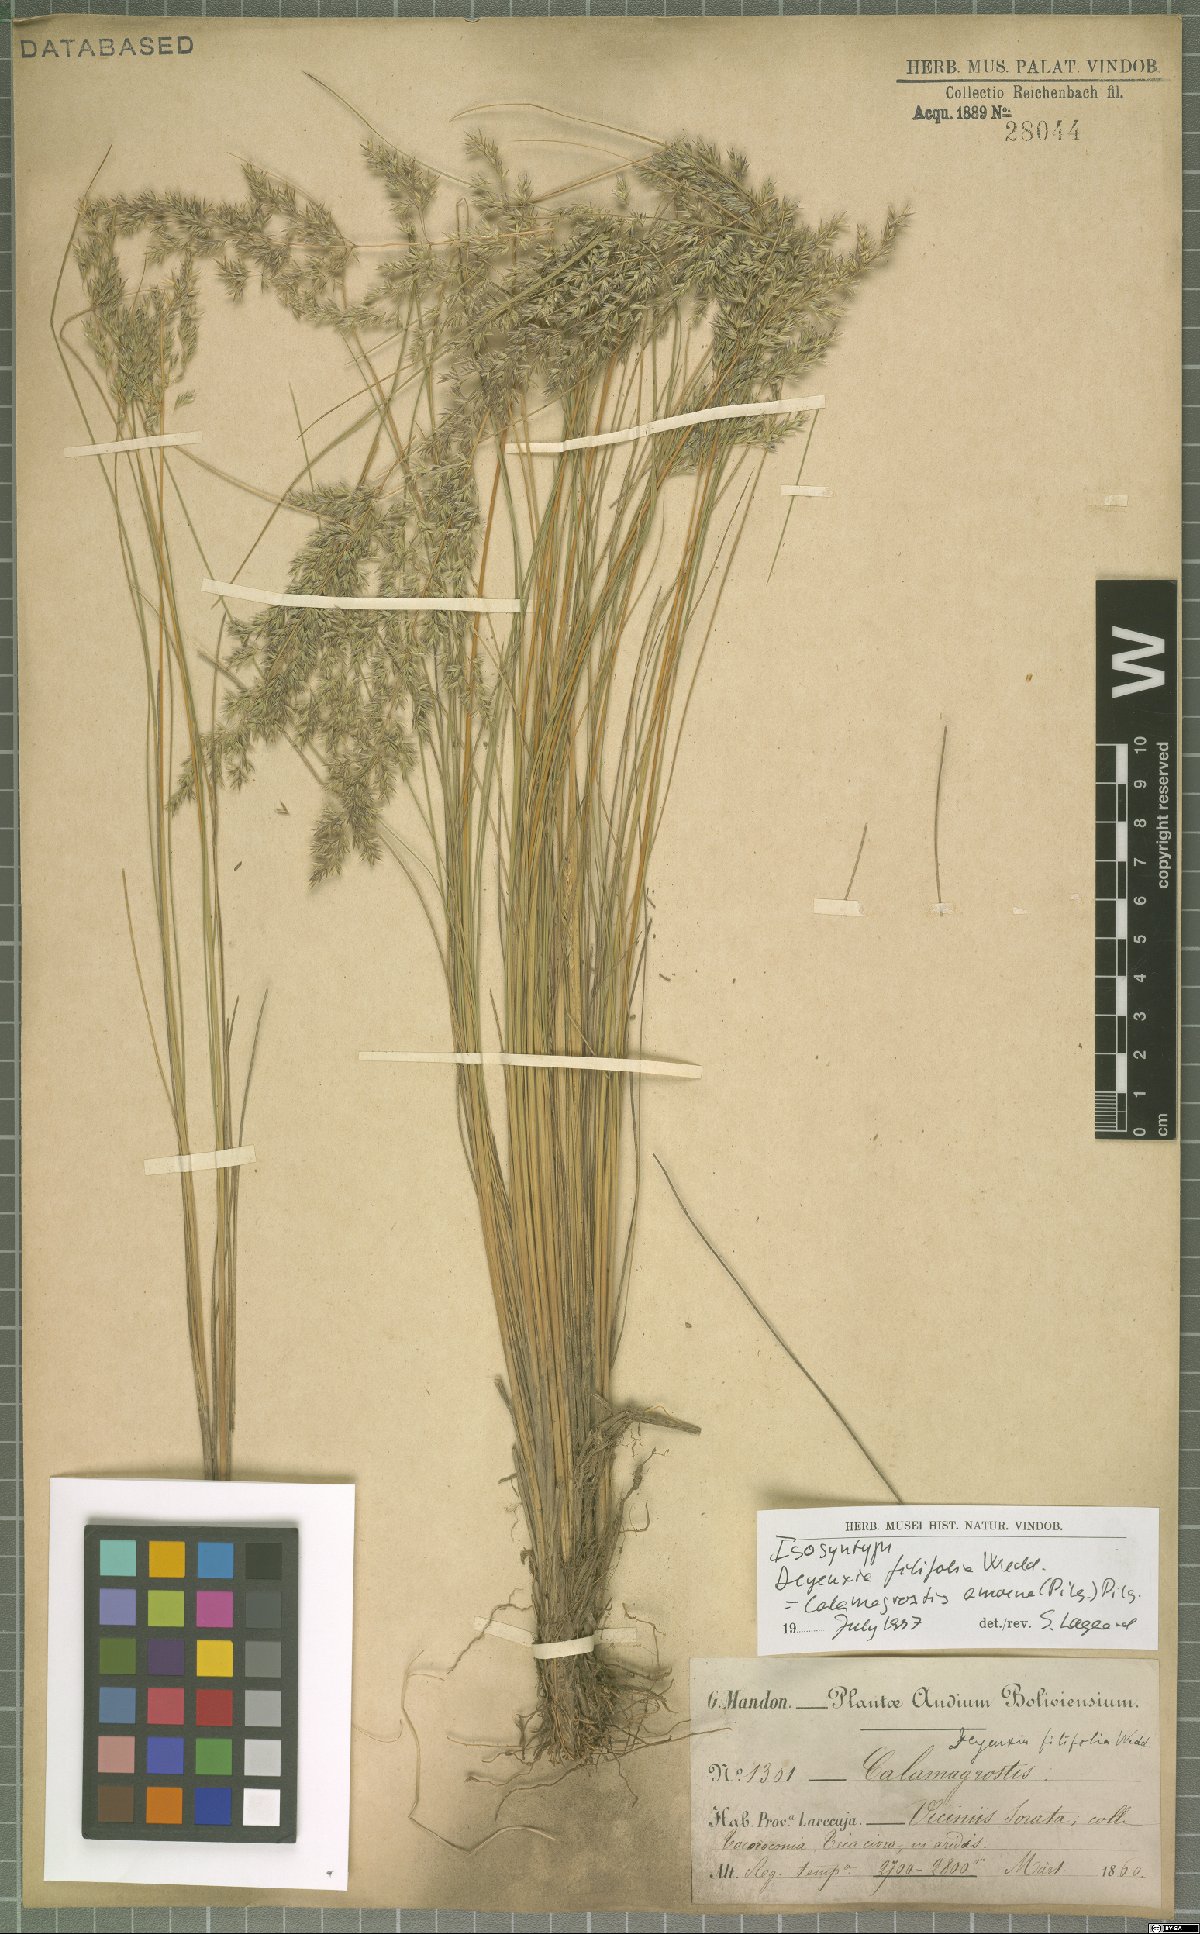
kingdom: Plantae
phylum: Tracheophyta
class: Liliopsida
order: Poales
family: Poaceae
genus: Cinnagrostis
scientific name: Cinnagrostis filifolia
